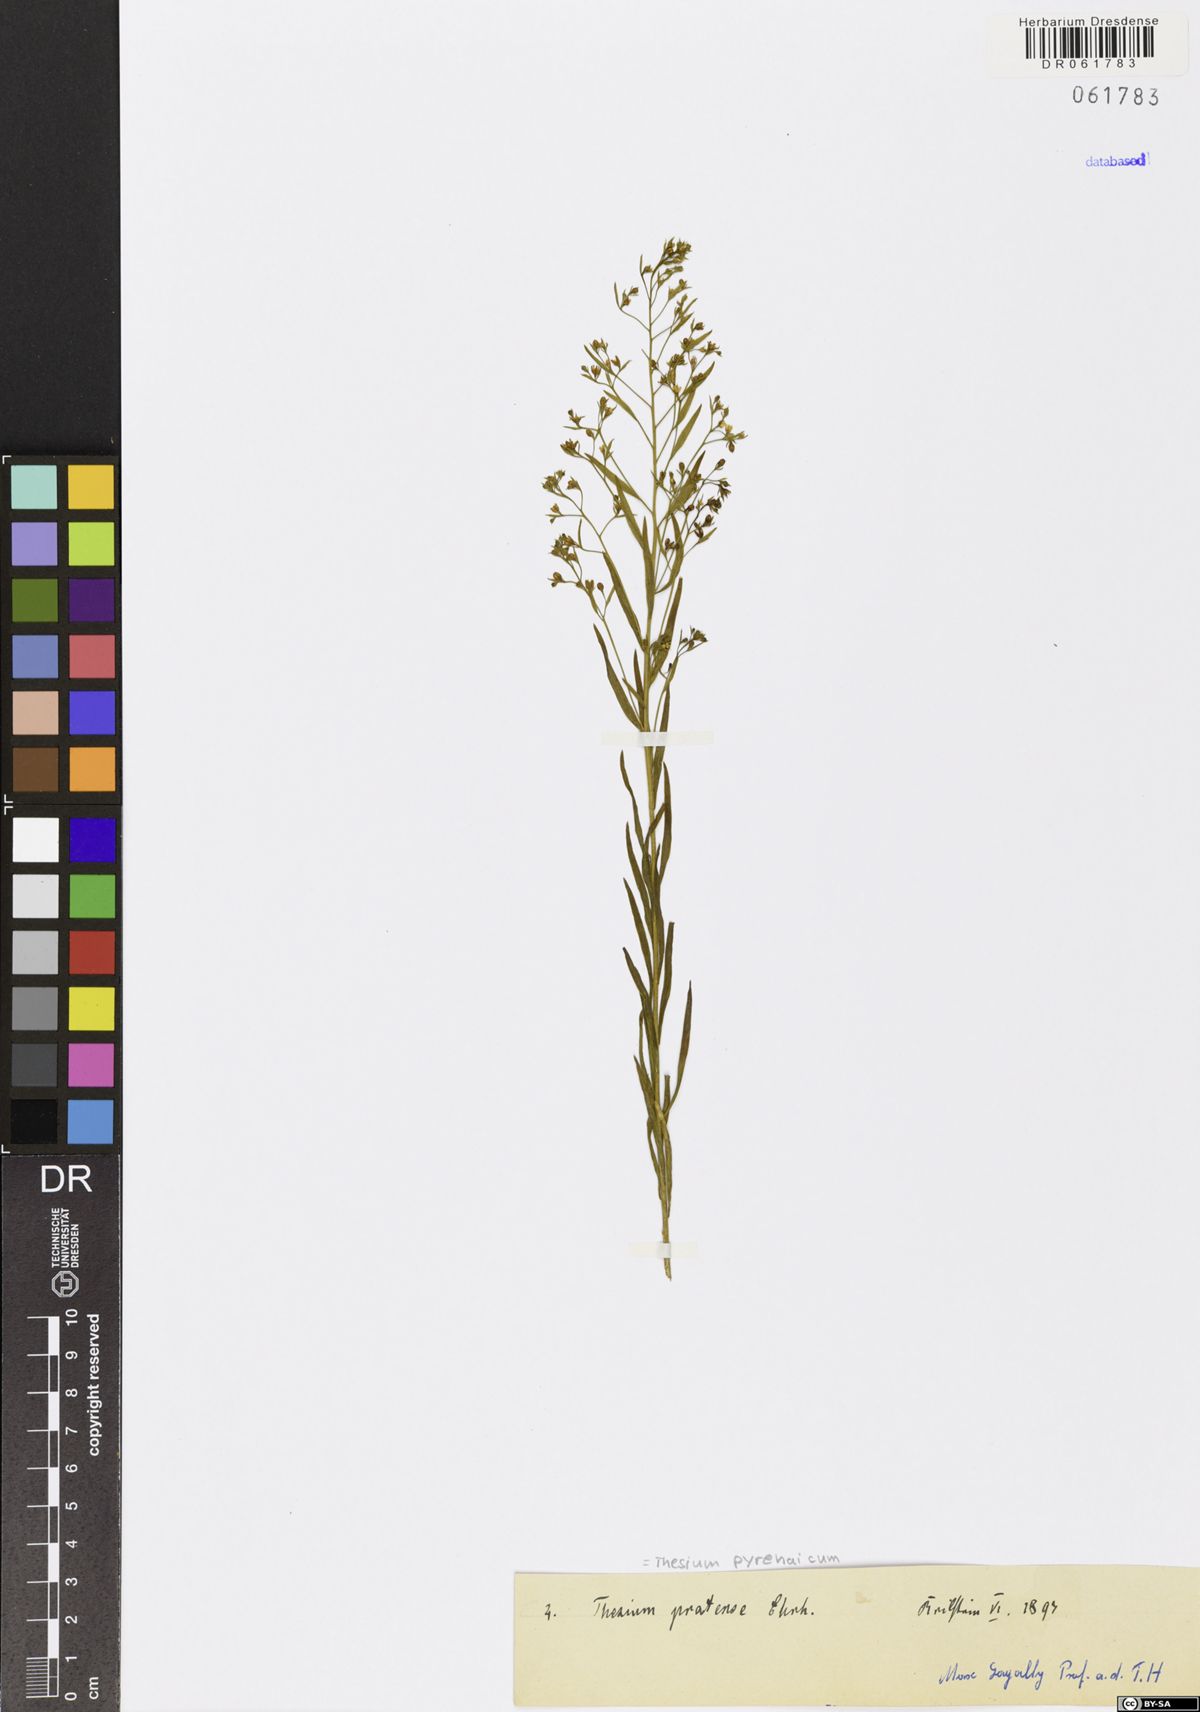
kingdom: Plantae
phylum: Tracheophyta
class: Magnoliopsida
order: Santalales
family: Thesiaceae
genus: Thesium
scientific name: Thesium pyrenaicum
